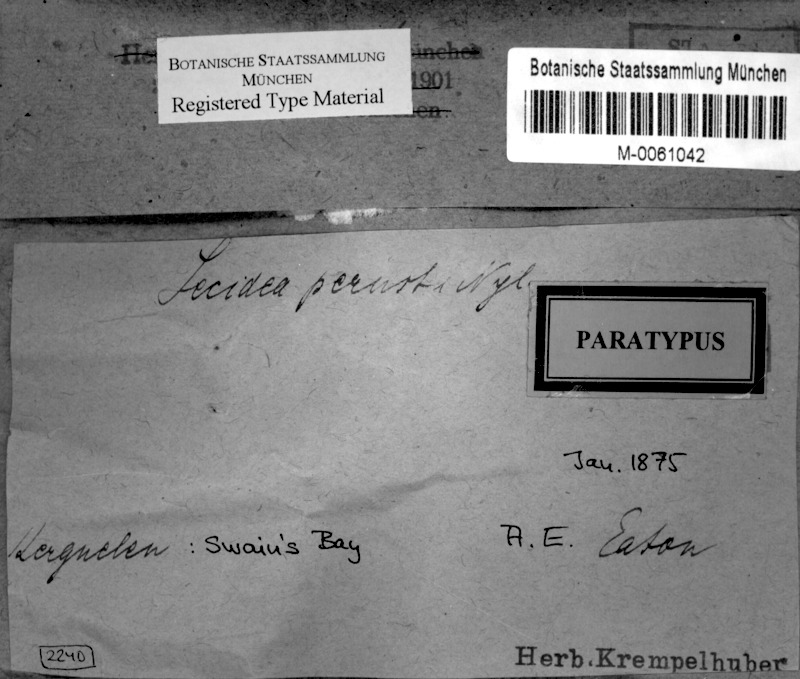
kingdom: Fungi
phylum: Ascomycota
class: Lecanoromycetes
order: Lecideales
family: Lecideaceae
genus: Poeltidea
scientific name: Poeltidea perusta
